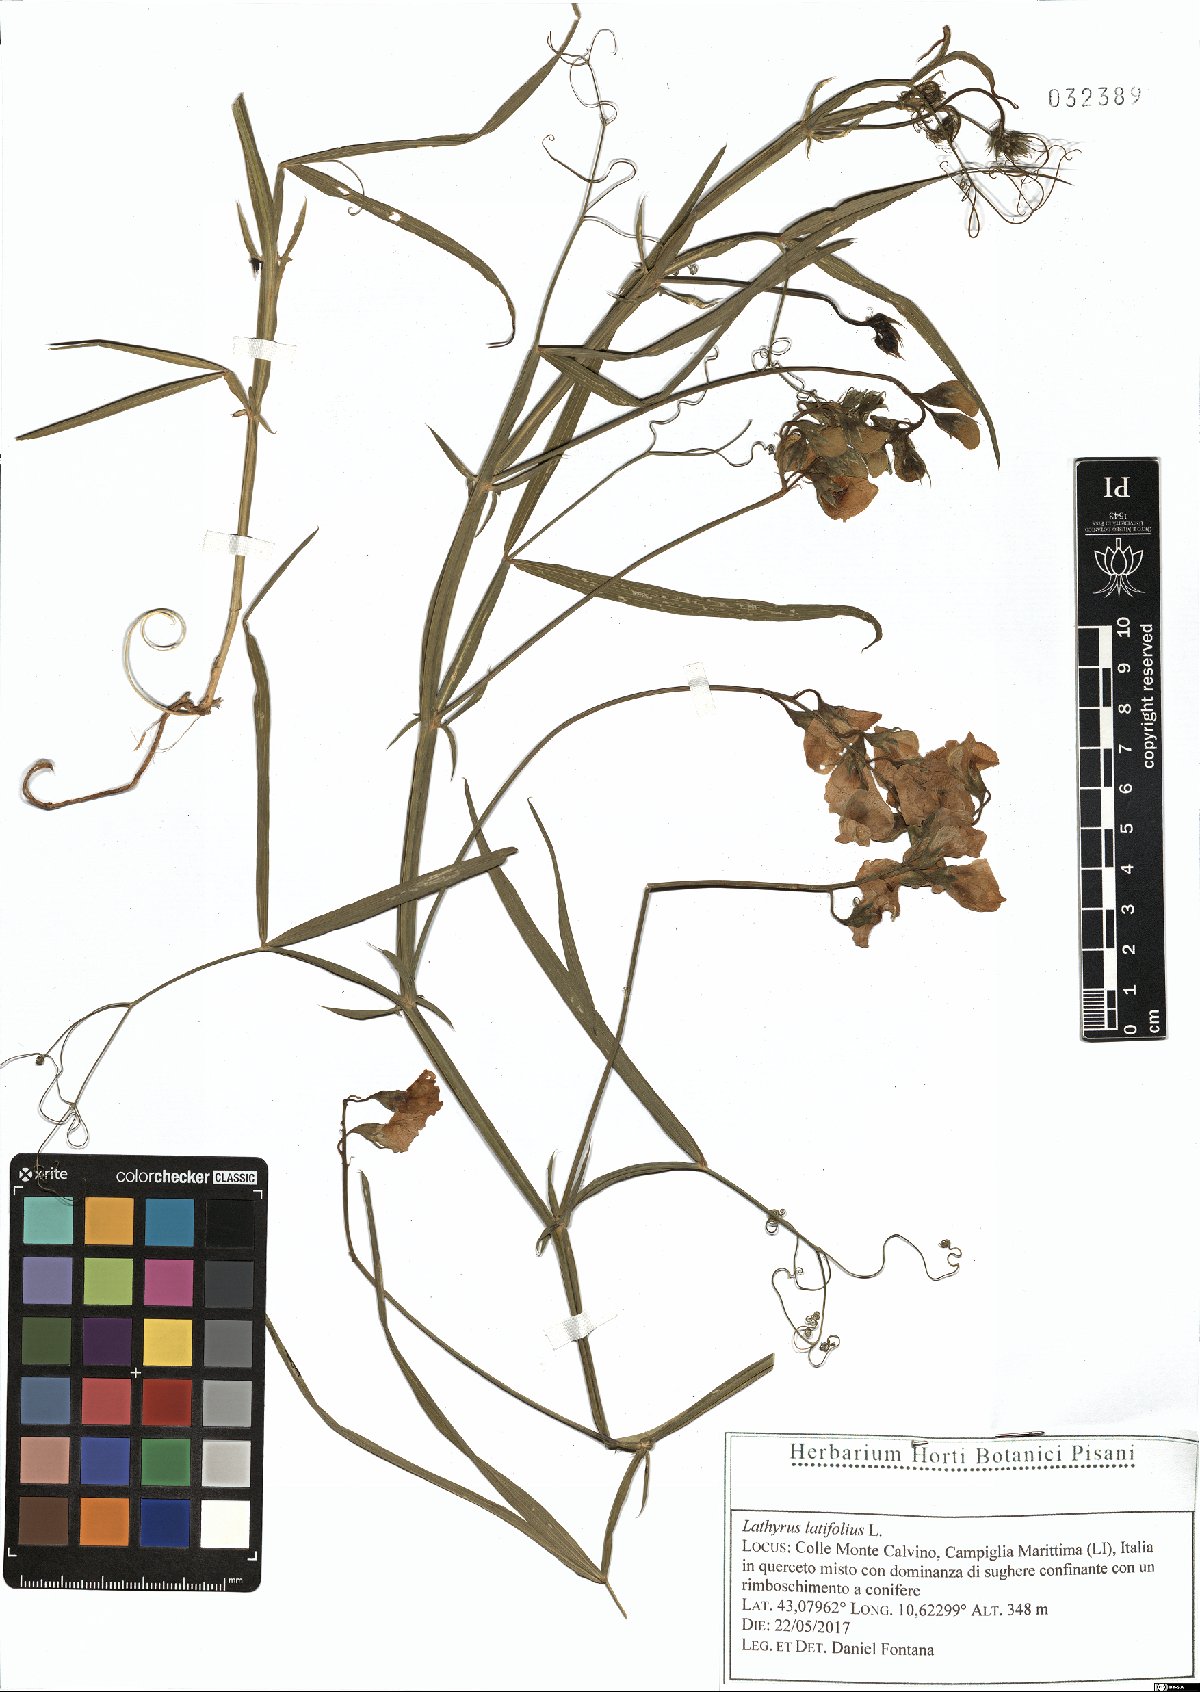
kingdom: Plantae
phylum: Tracheophyta
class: Magnoliopsida
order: Fabales
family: Fabaceae
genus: Lathyrus
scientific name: Lathyrus latifolius
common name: Perennial pea
